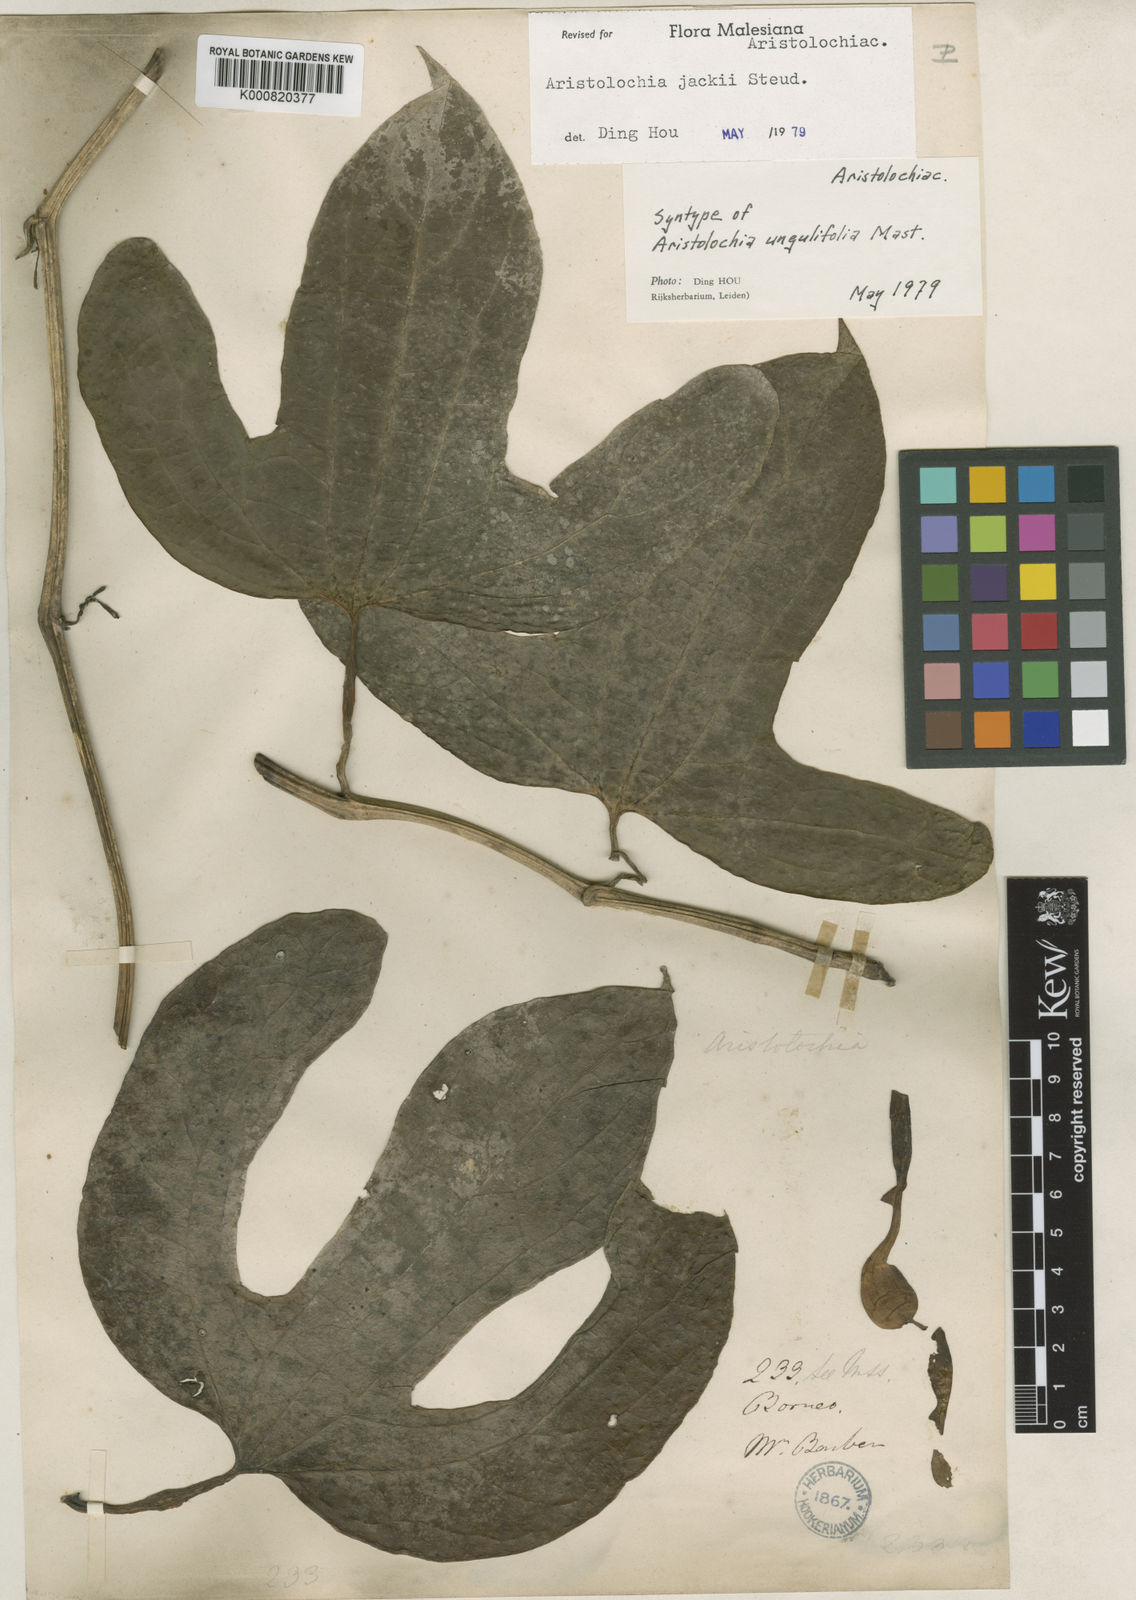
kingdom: Plantae
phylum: Tracheophyta
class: Magnoliopsida
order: Piperales
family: Aristolochiaceae
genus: Aristolochia
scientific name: Aristolochia jackii
